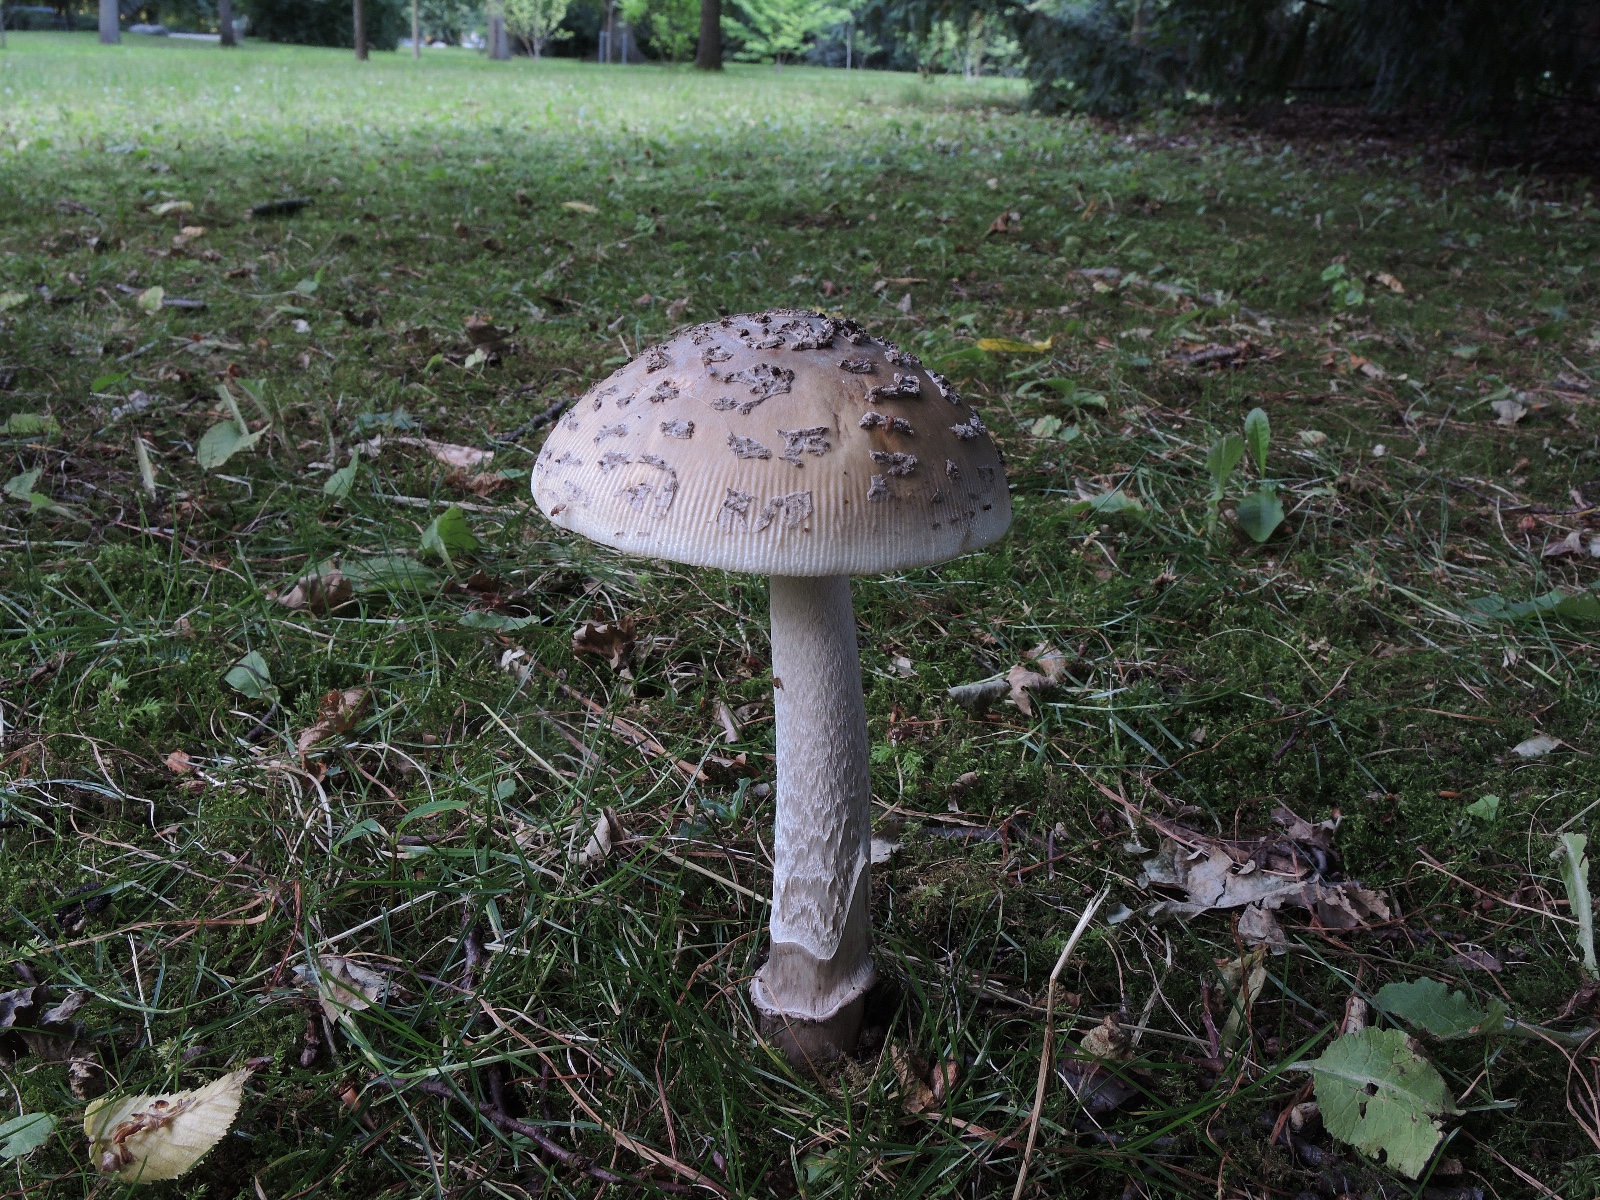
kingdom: Fungi
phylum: Basidiomycota
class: Agaricomycetes
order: Agaricales
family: Amanitaceae
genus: Amanita
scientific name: Amanita ceciliae
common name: stor kam-fluesvamp
